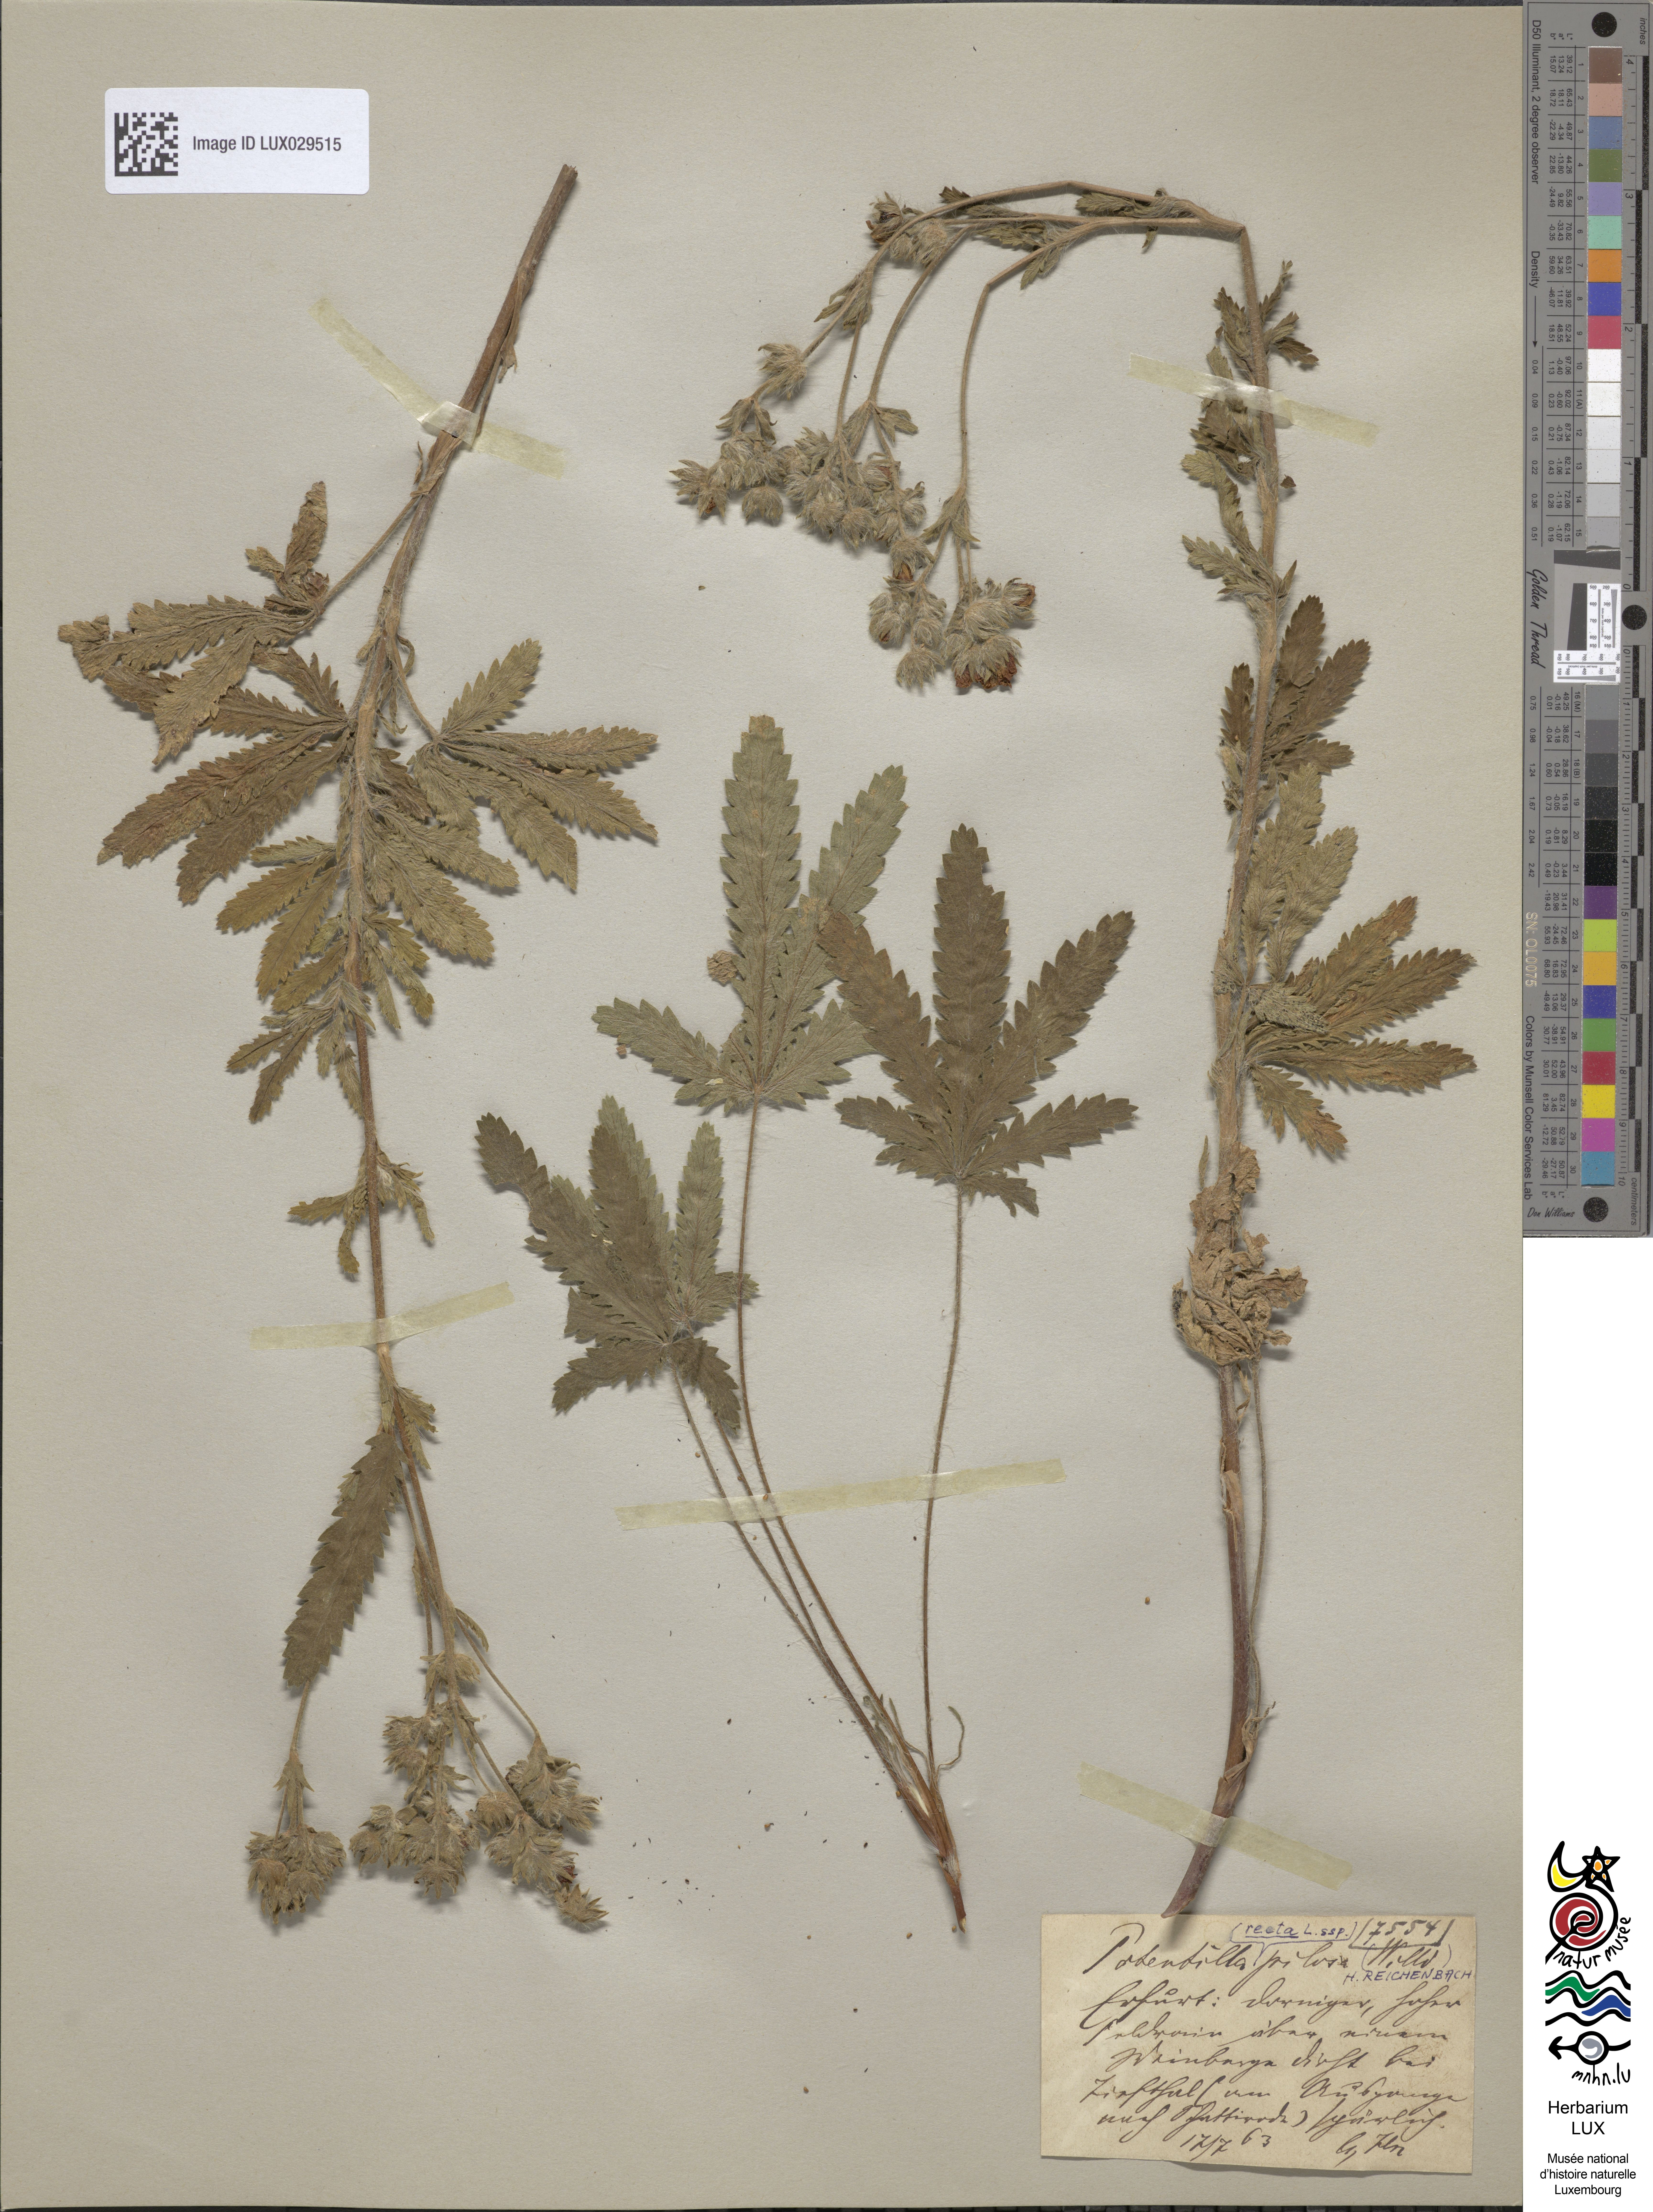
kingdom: Plantae
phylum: Tracheophyta
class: Magnoliopsida
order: Rosales
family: Rosaceae
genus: Potentilla
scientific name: Potentilla recta
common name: Sulphur cinquefoil
